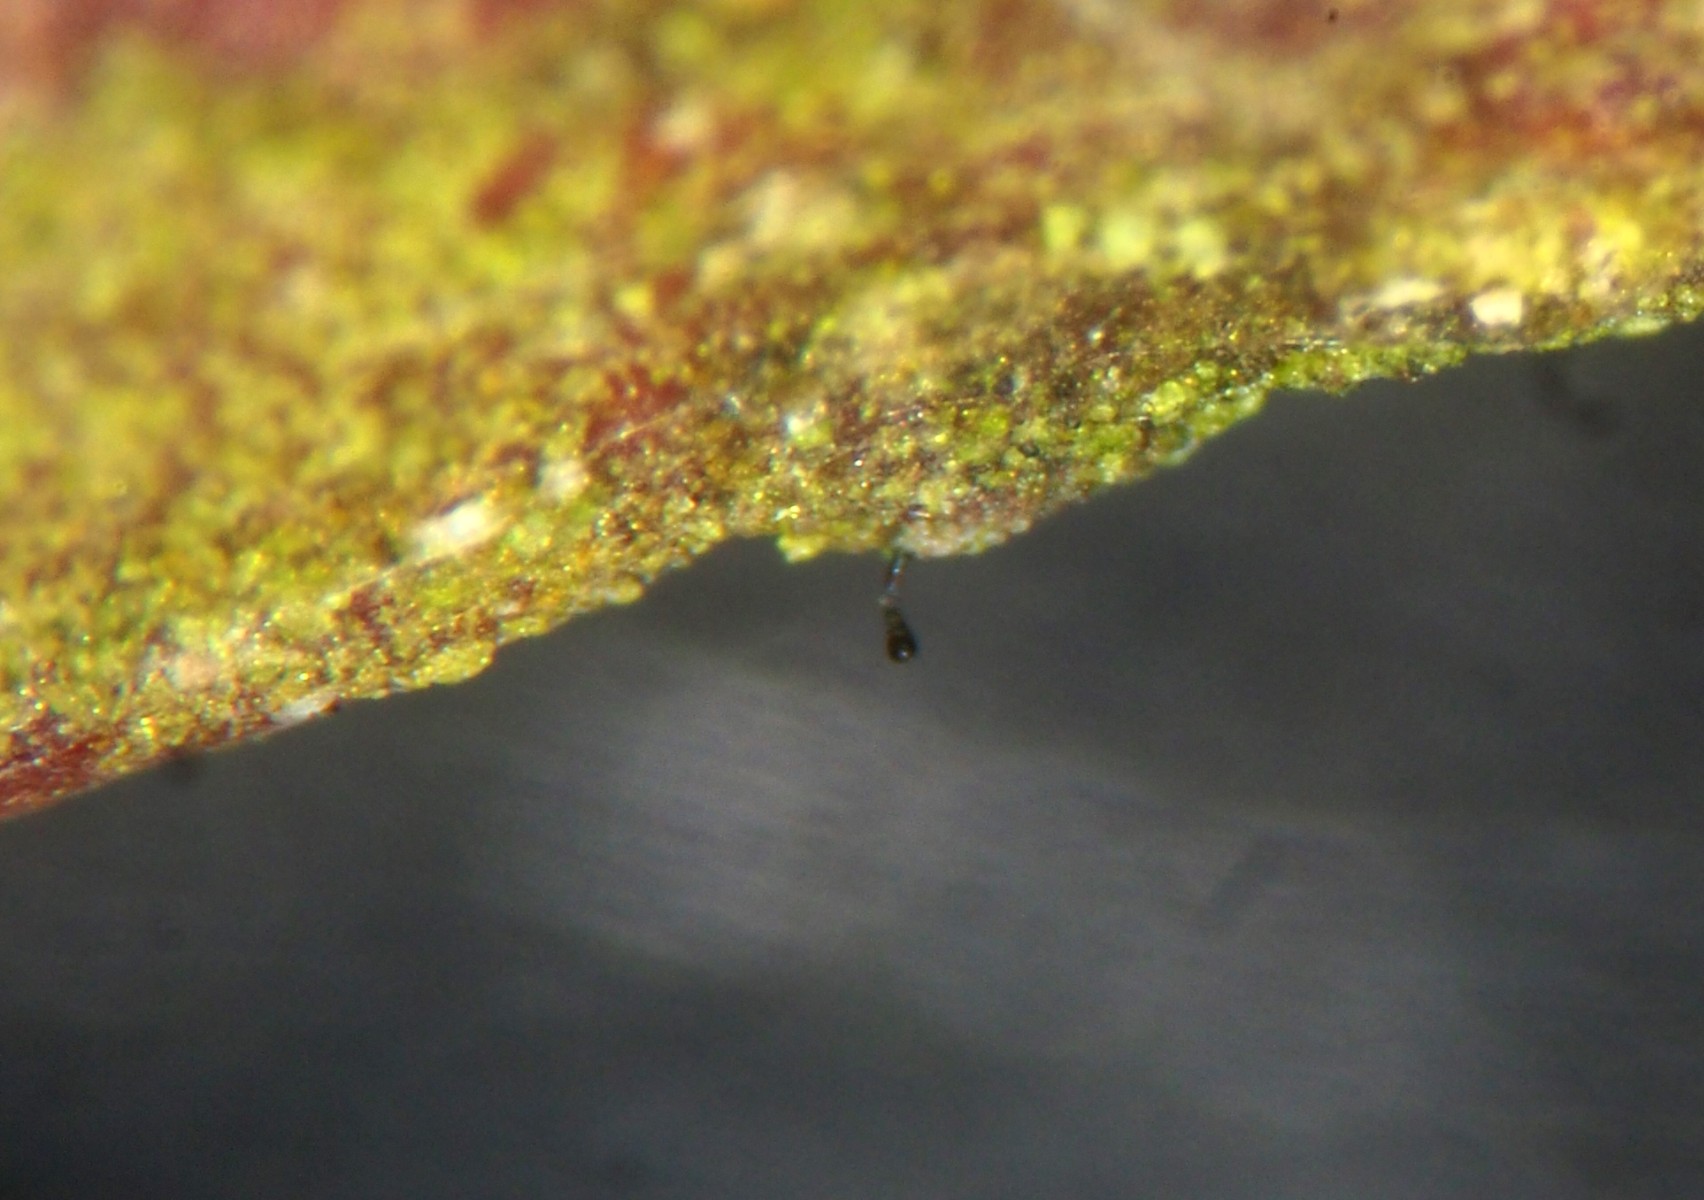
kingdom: Fungi
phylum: Ascomycota
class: Eurotiomycetes
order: Mycocaliciales
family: Mycocaliciaceae
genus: Stenocybe
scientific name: Stenocybe pullatula
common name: elle-nålesvamp
